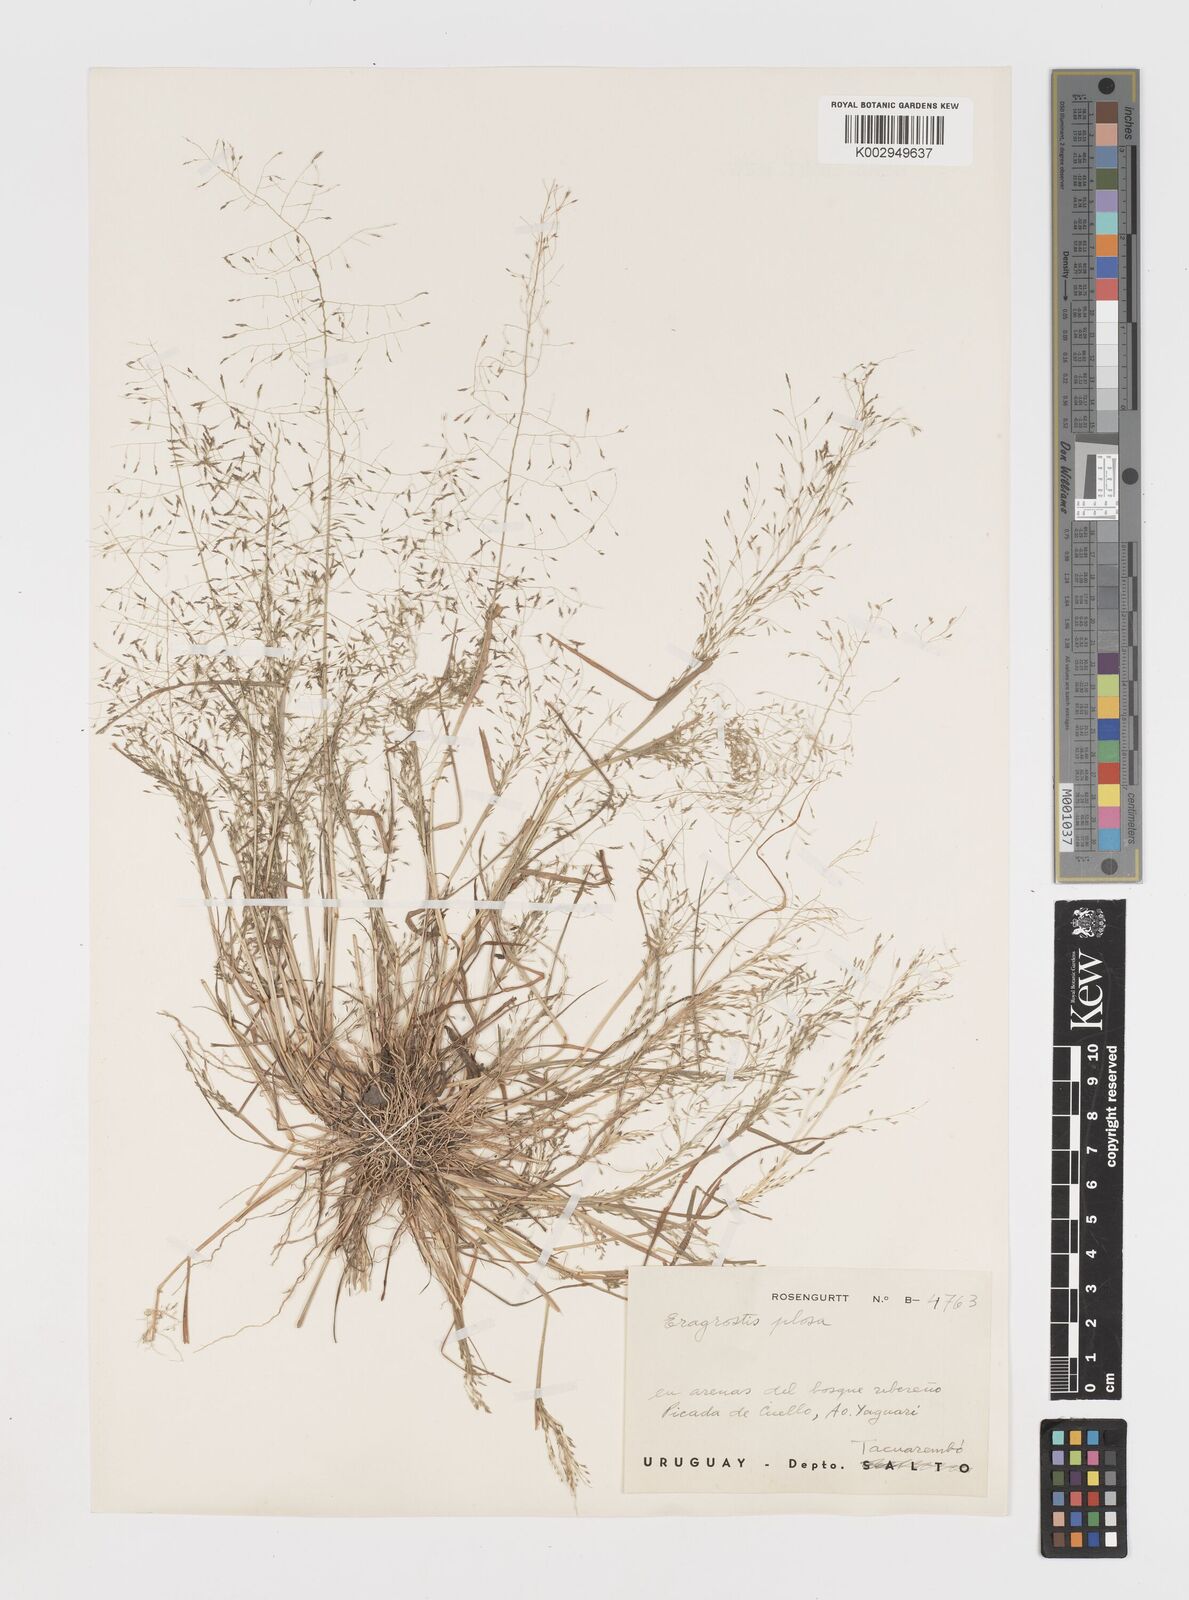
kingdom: Plantae
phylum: Tracheophyta
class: Liliopsida
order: Poales
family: Poaceae
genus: Eragrostis
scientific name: Eragrostis pilosa
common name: Indian lovegrass
